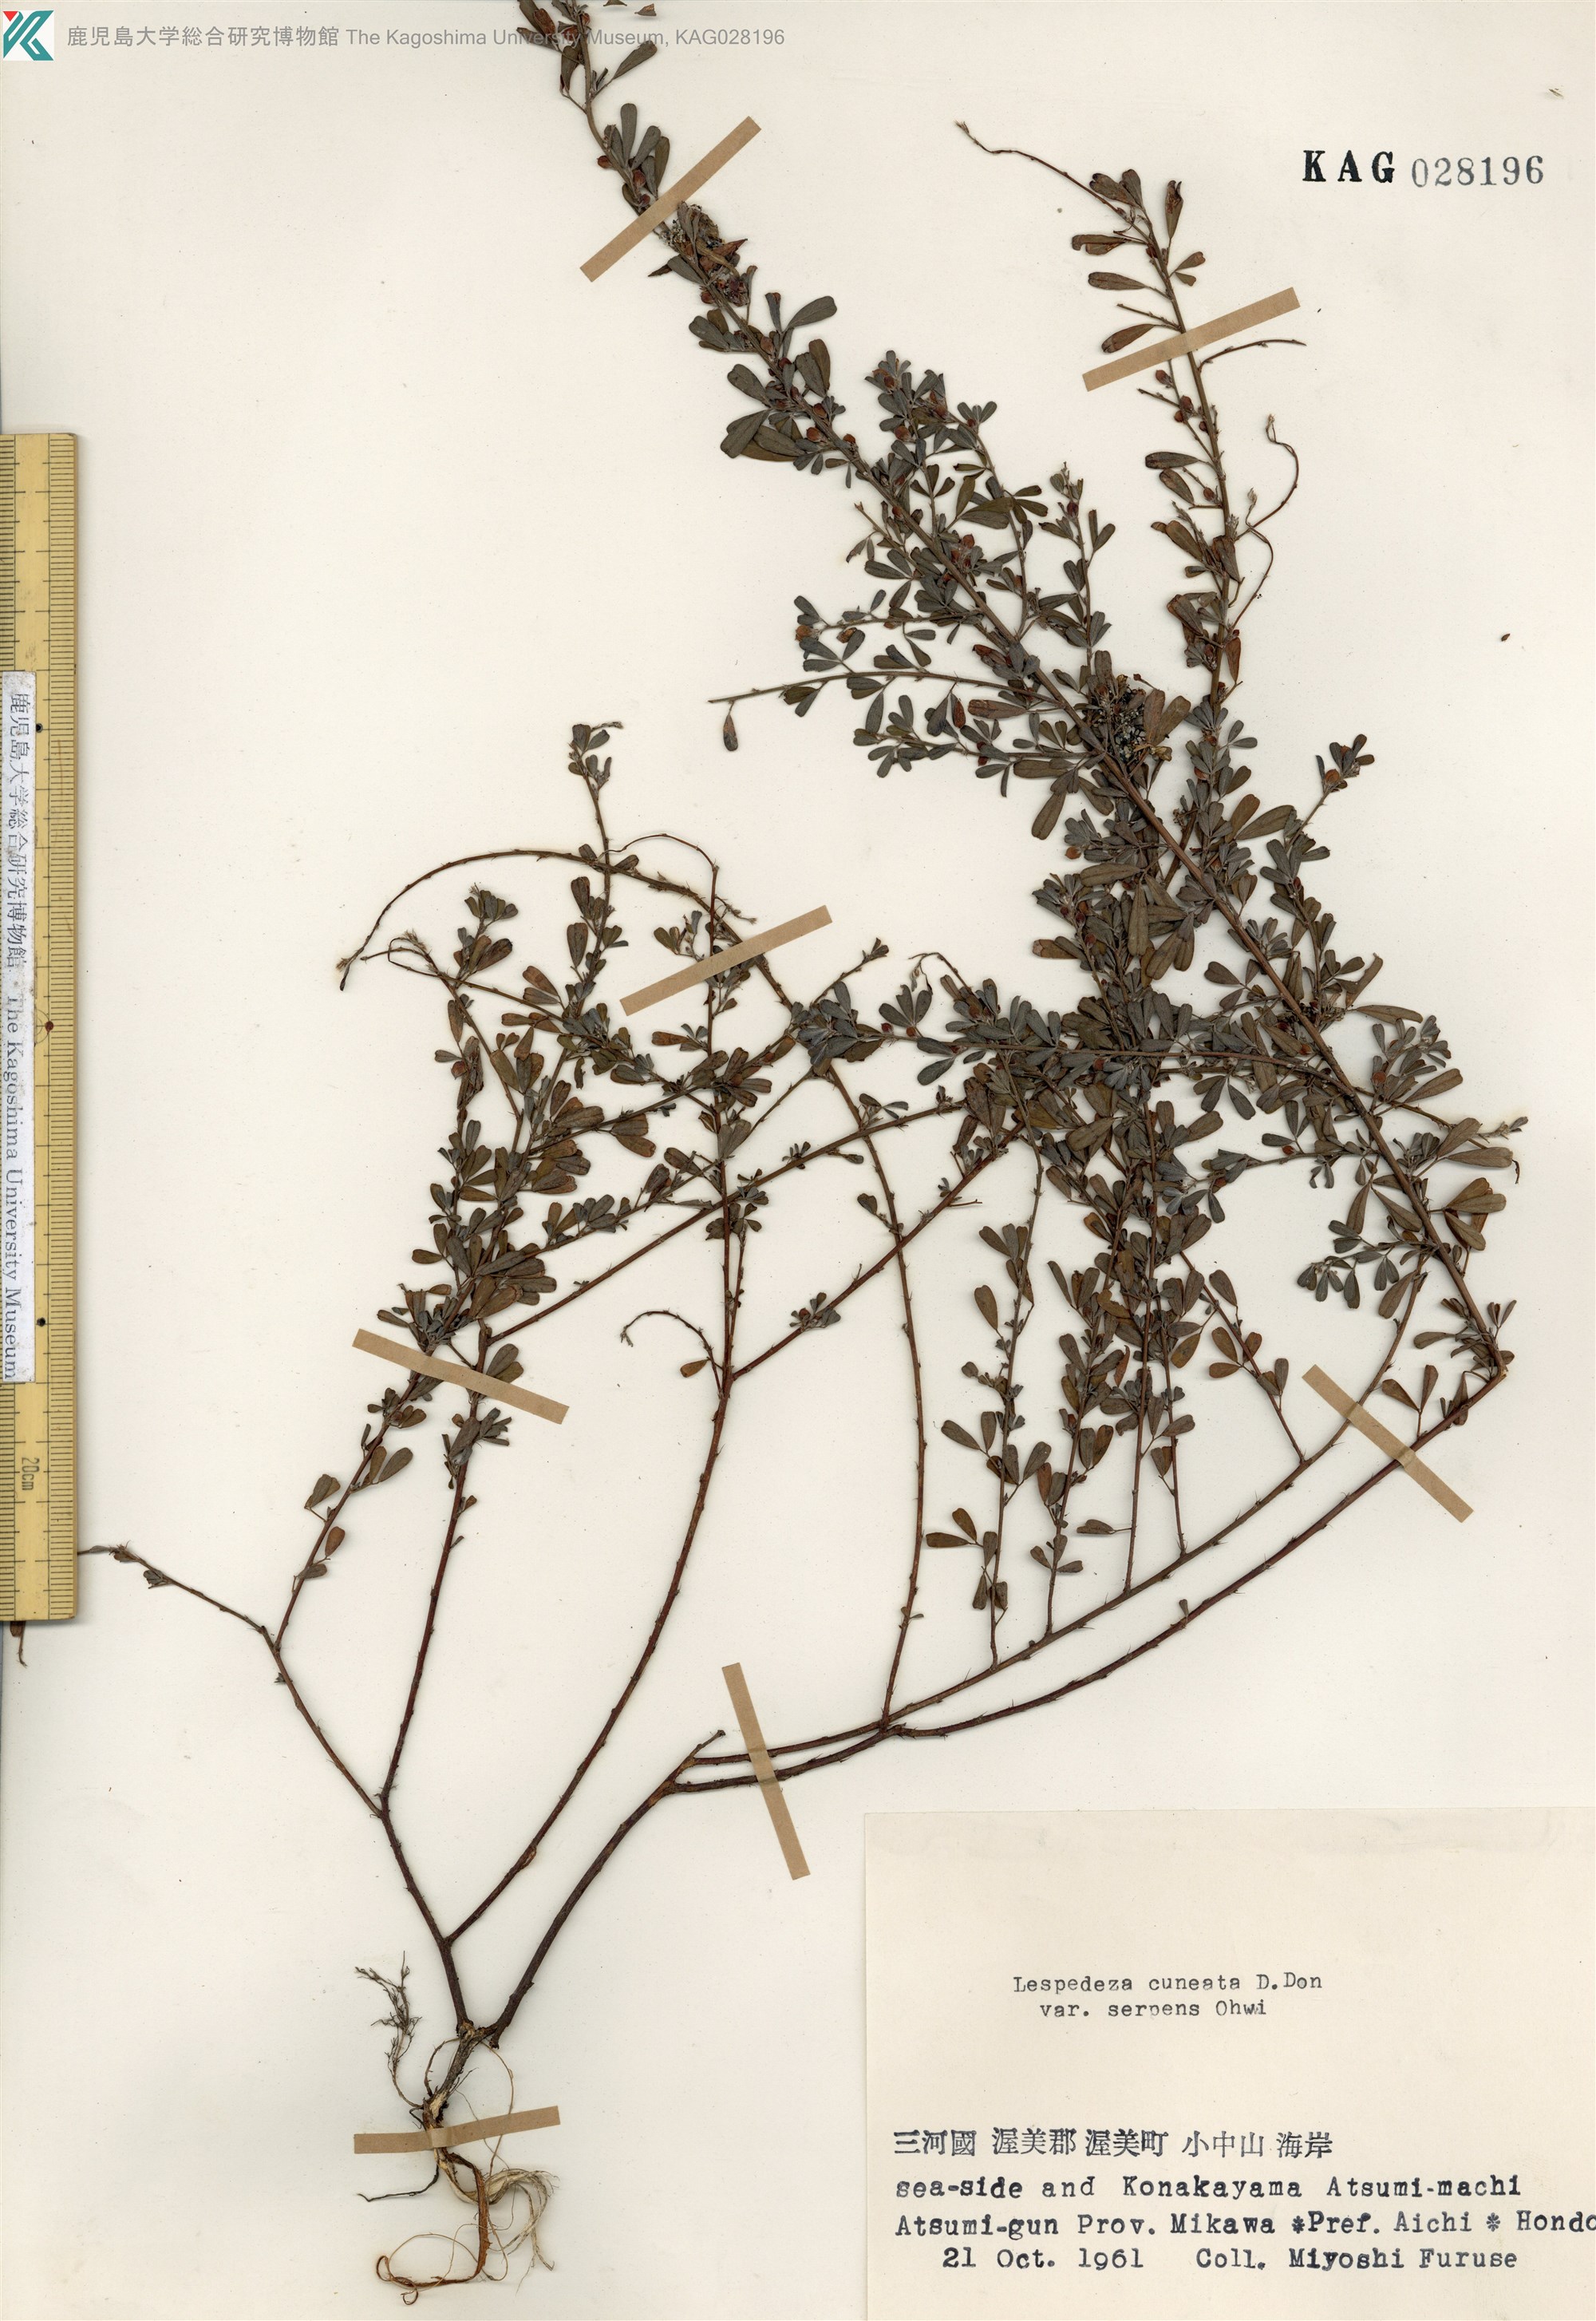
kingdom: Plantae
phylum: Tracheophyta
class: Magnoliopsida
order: Fabales
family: Fabaceae
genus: Lespedeza
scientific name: Lespedeza cuneata
